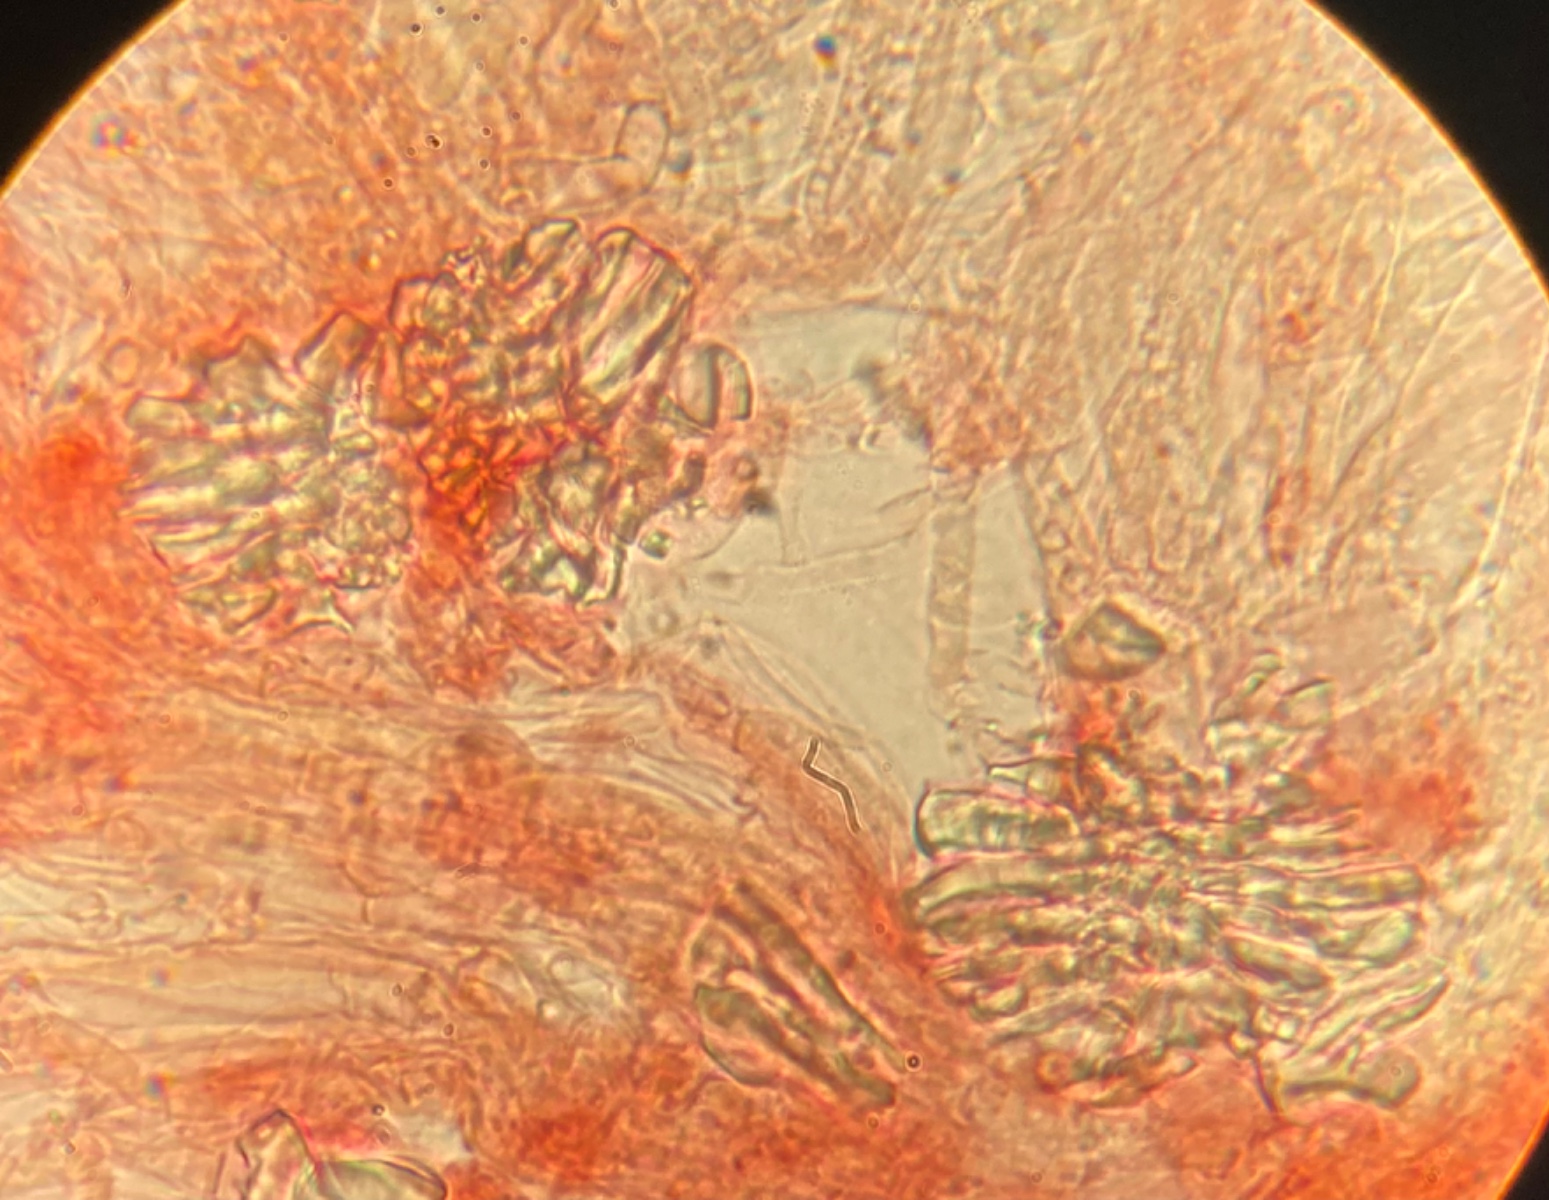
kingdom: Fungi
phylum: Basidiomycota
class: Agaricomycetes
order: Agaricales
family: Clavariaceae
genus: Ramariopsis
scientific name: Ramariopsis bispora
